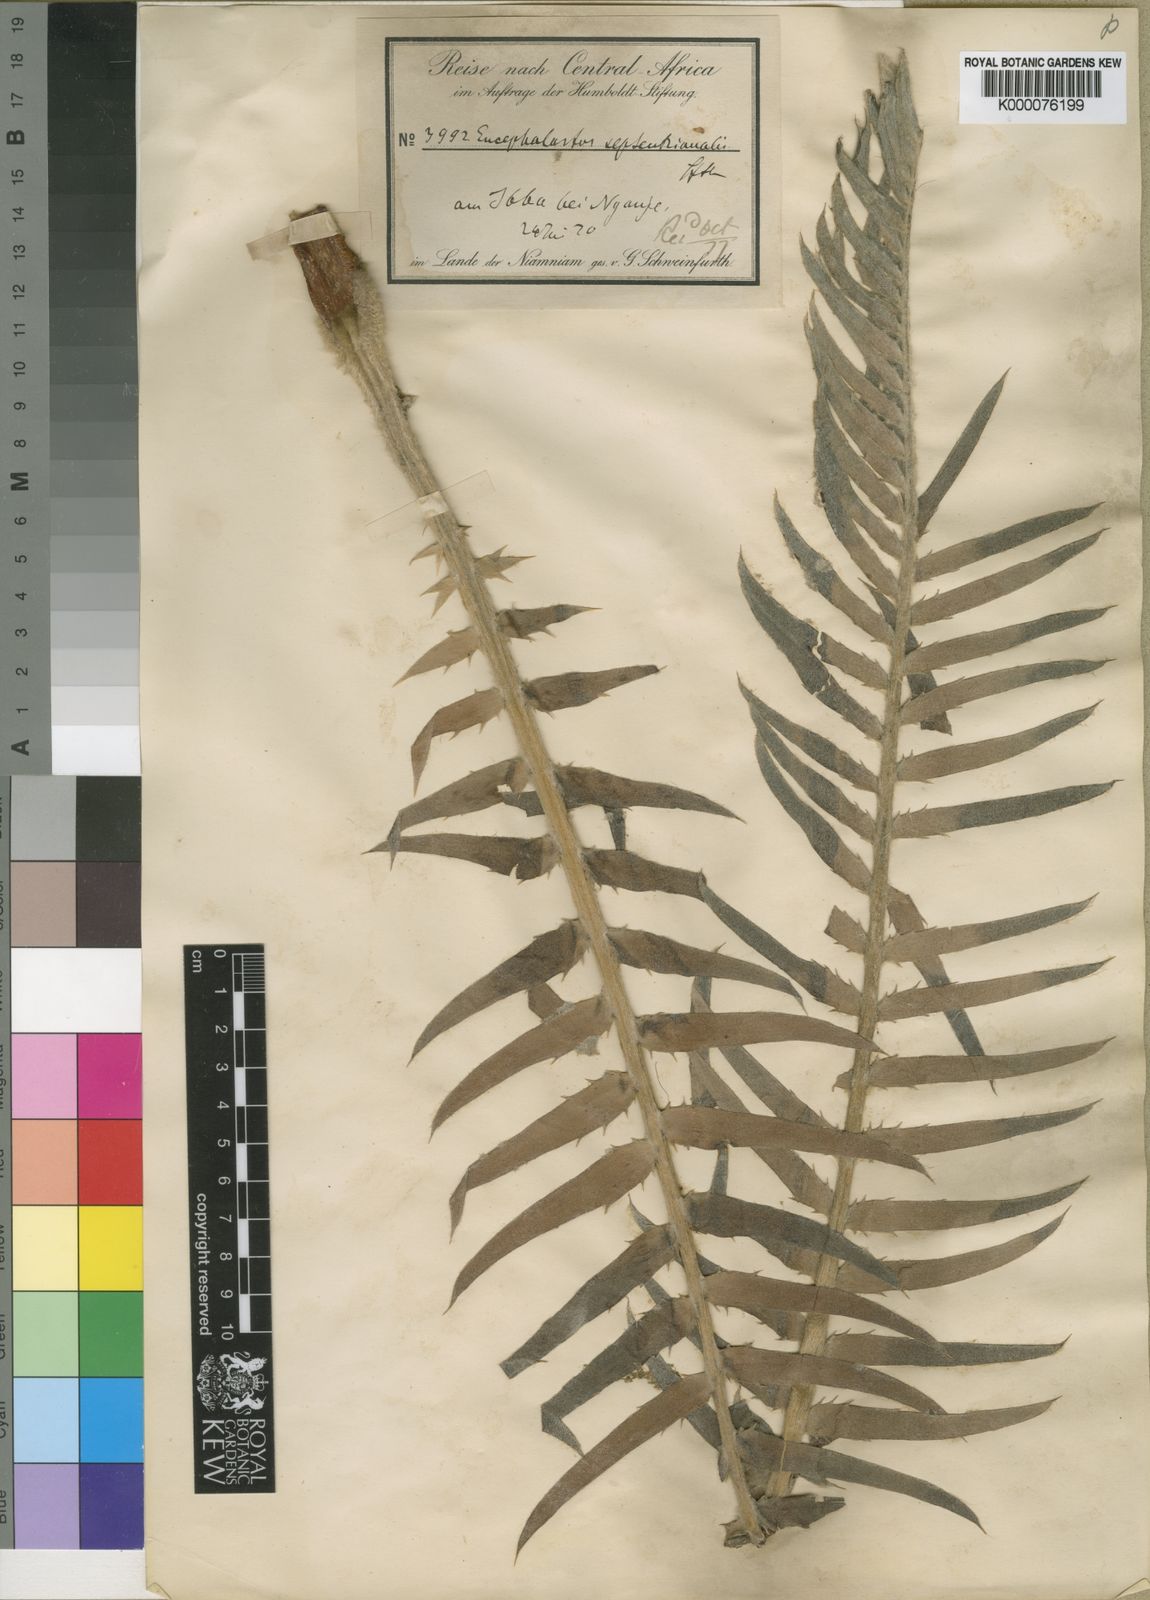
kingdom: Plantae
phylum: Tracheophyta
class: Cycadopsida
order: Cycadales
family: Zamiaceae
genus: Encephalartos
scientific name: Encephalartos septentrionalis
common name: Nile cycad
